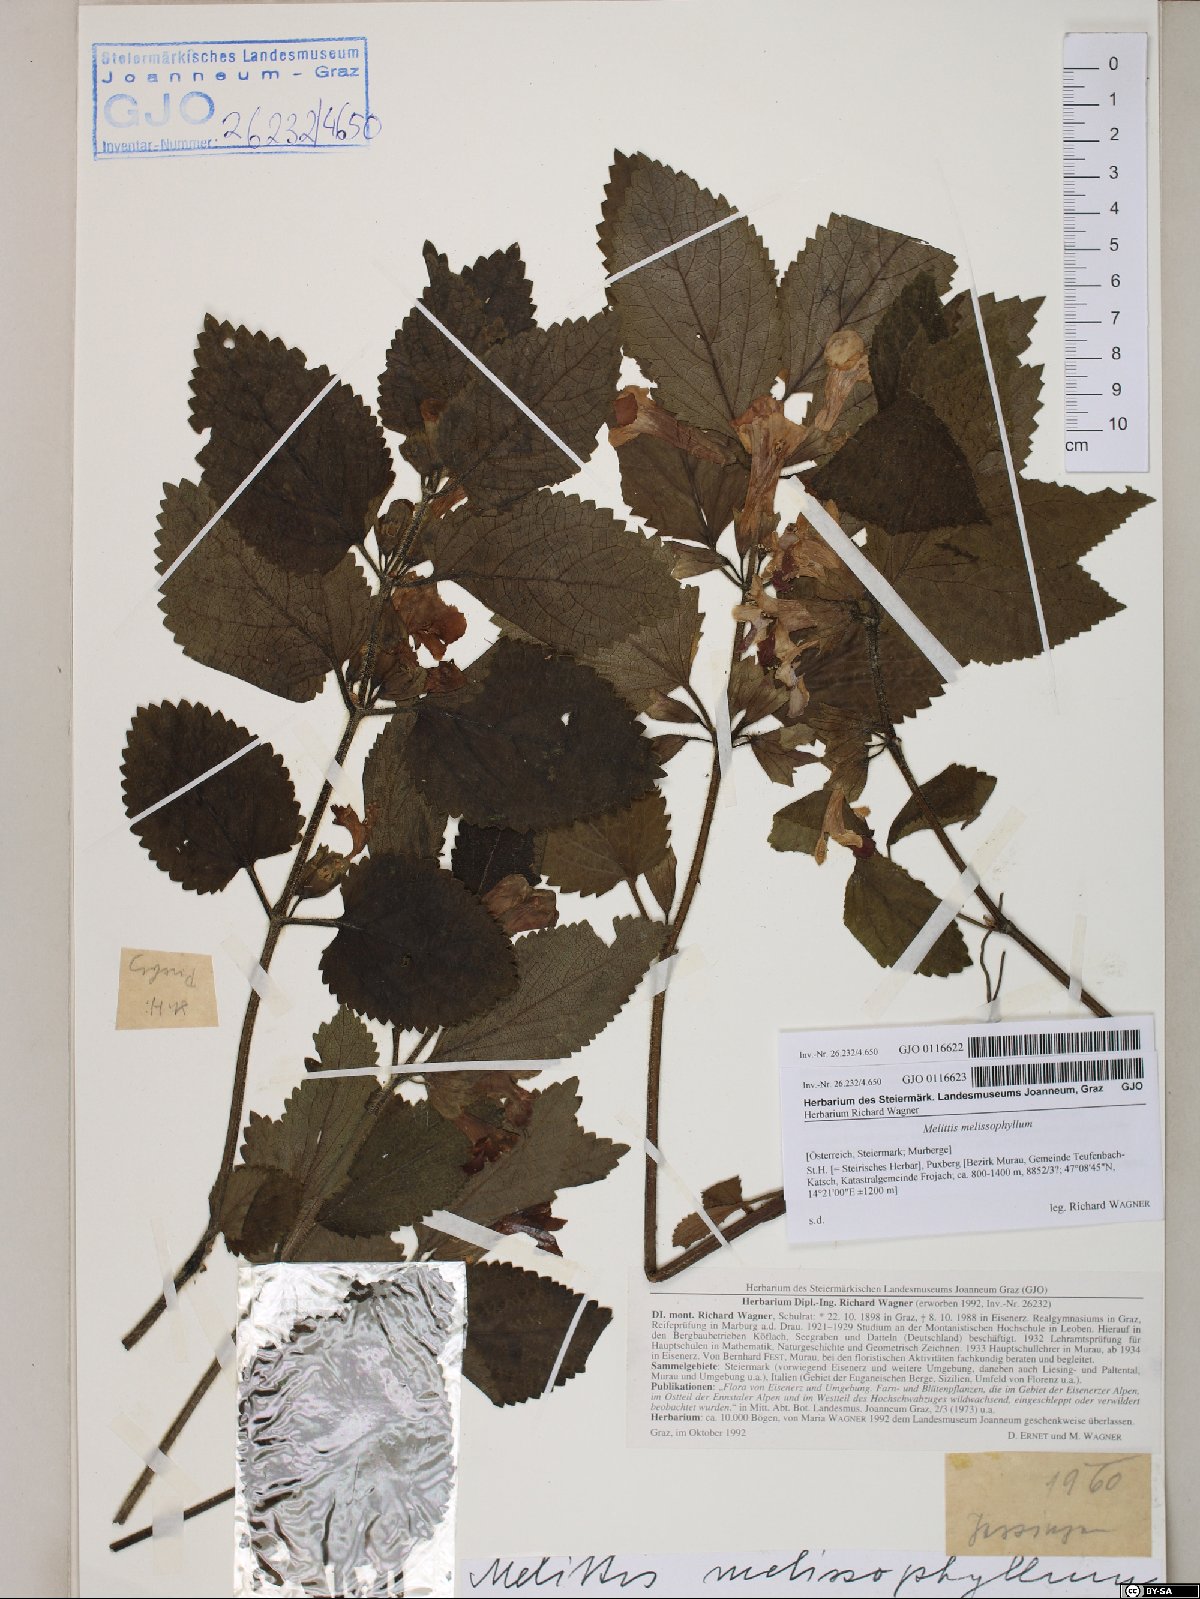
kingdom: Plantae
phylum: Tracheophyta
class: Magnoliopsida
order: Lamiales
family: Lamiaceae
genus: Melittis
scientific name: Melittis melissophyllum
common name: Bastard balm
